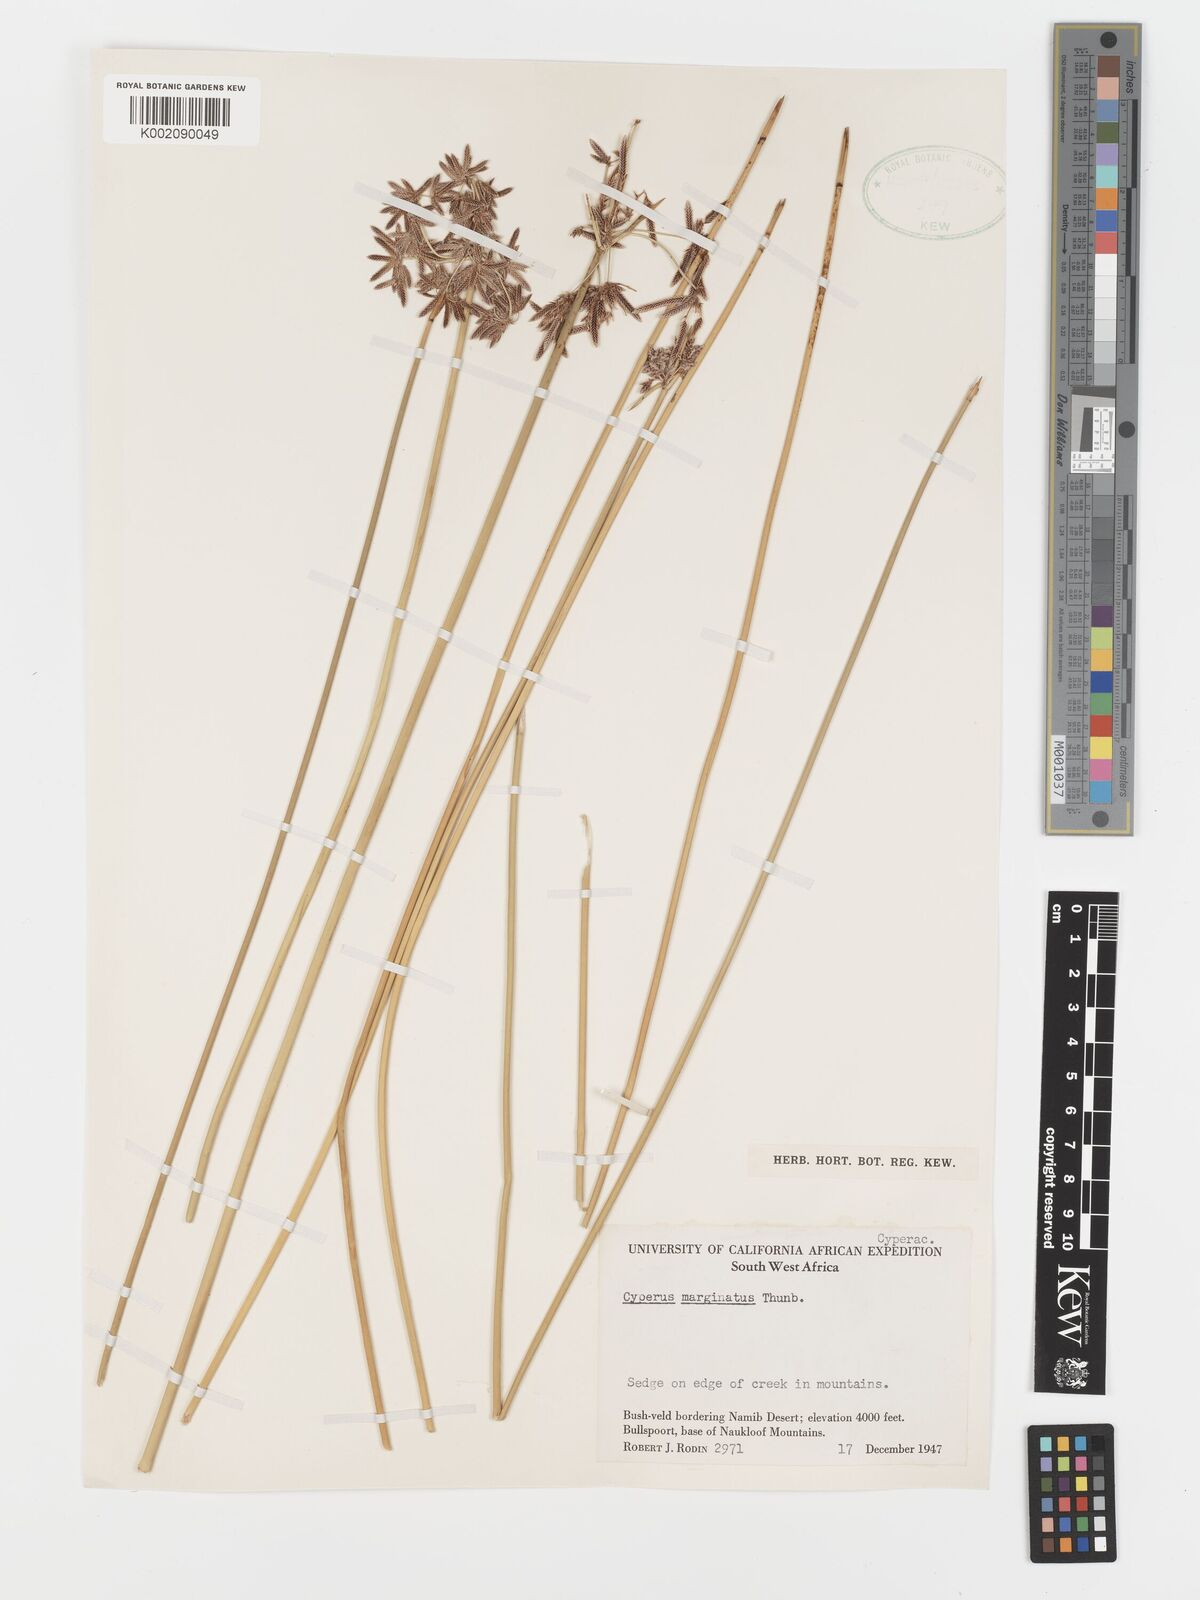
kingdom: Plantae
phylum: Tracheophyta
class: Liliopsida
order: Poales
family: Cyperaceae
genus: Cyperus
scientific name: Cyperus marginatus
